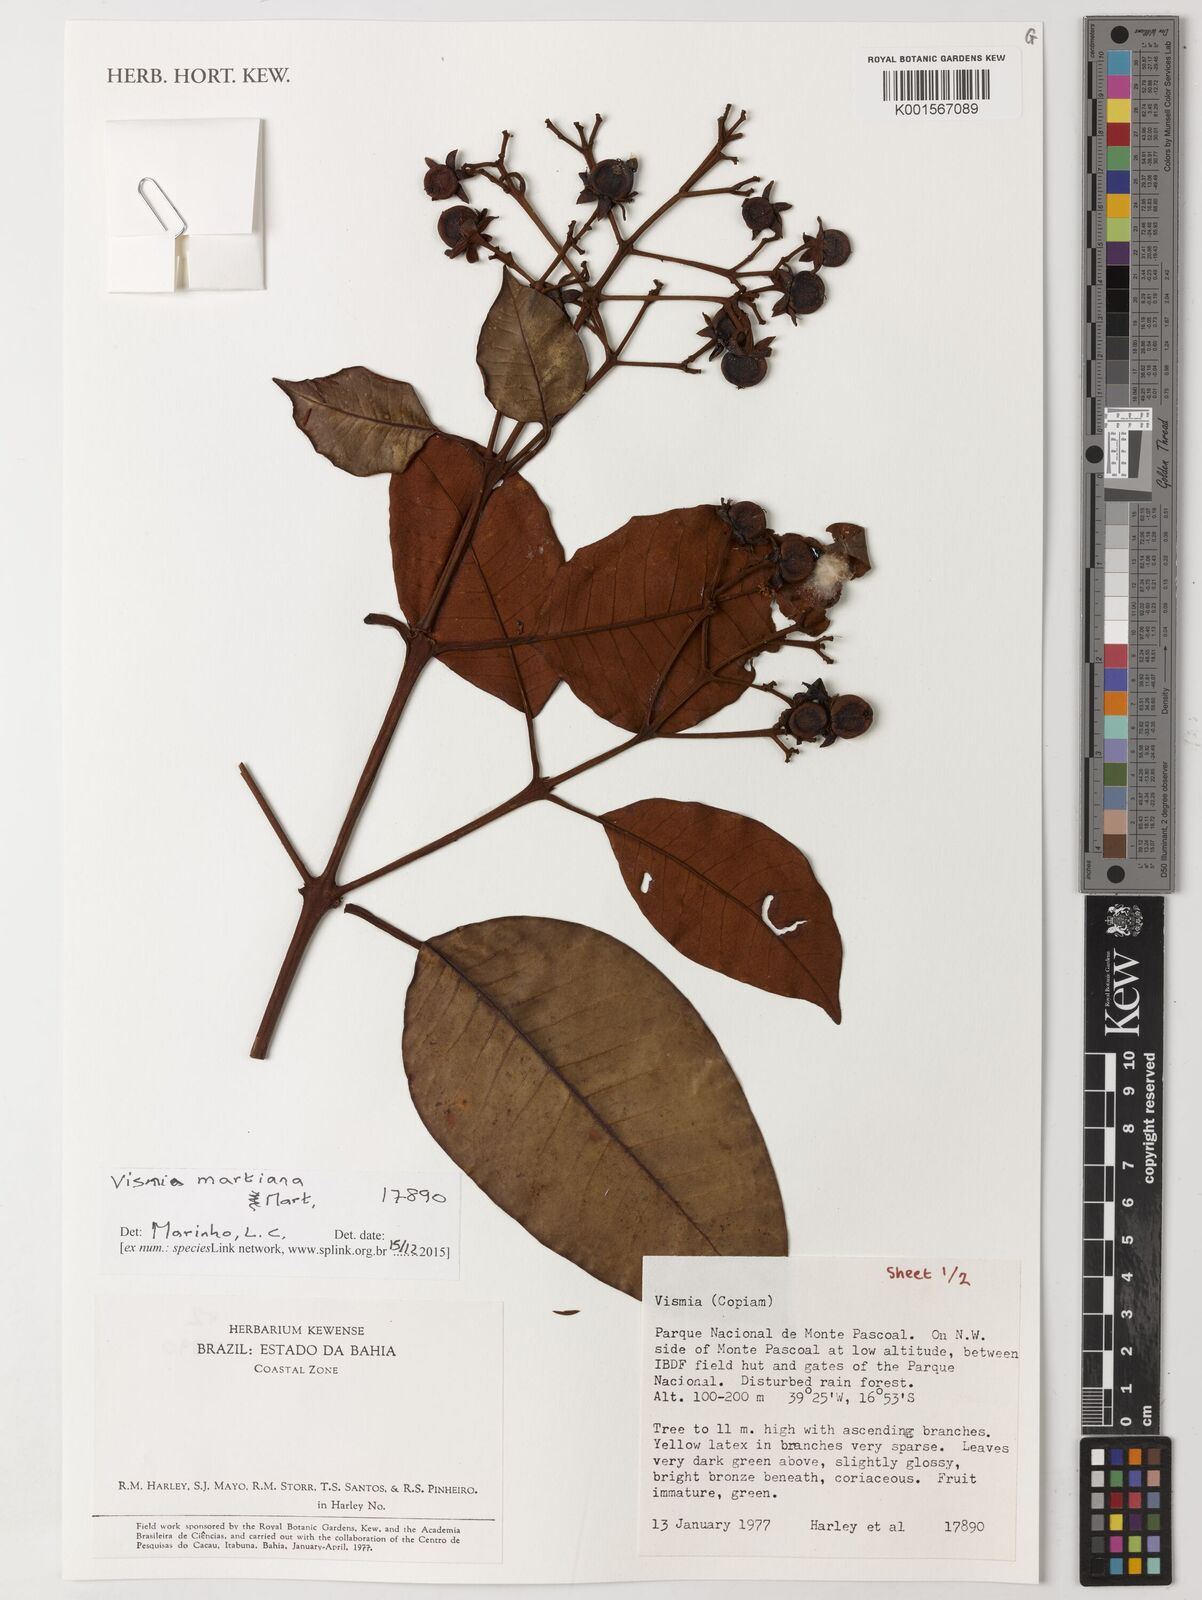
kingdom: Plantae
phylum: Tracheophyta
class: Magnoliopsida
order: Malpighiales
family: Hypericaceae
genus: Vismia
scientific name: Vismia martiana
